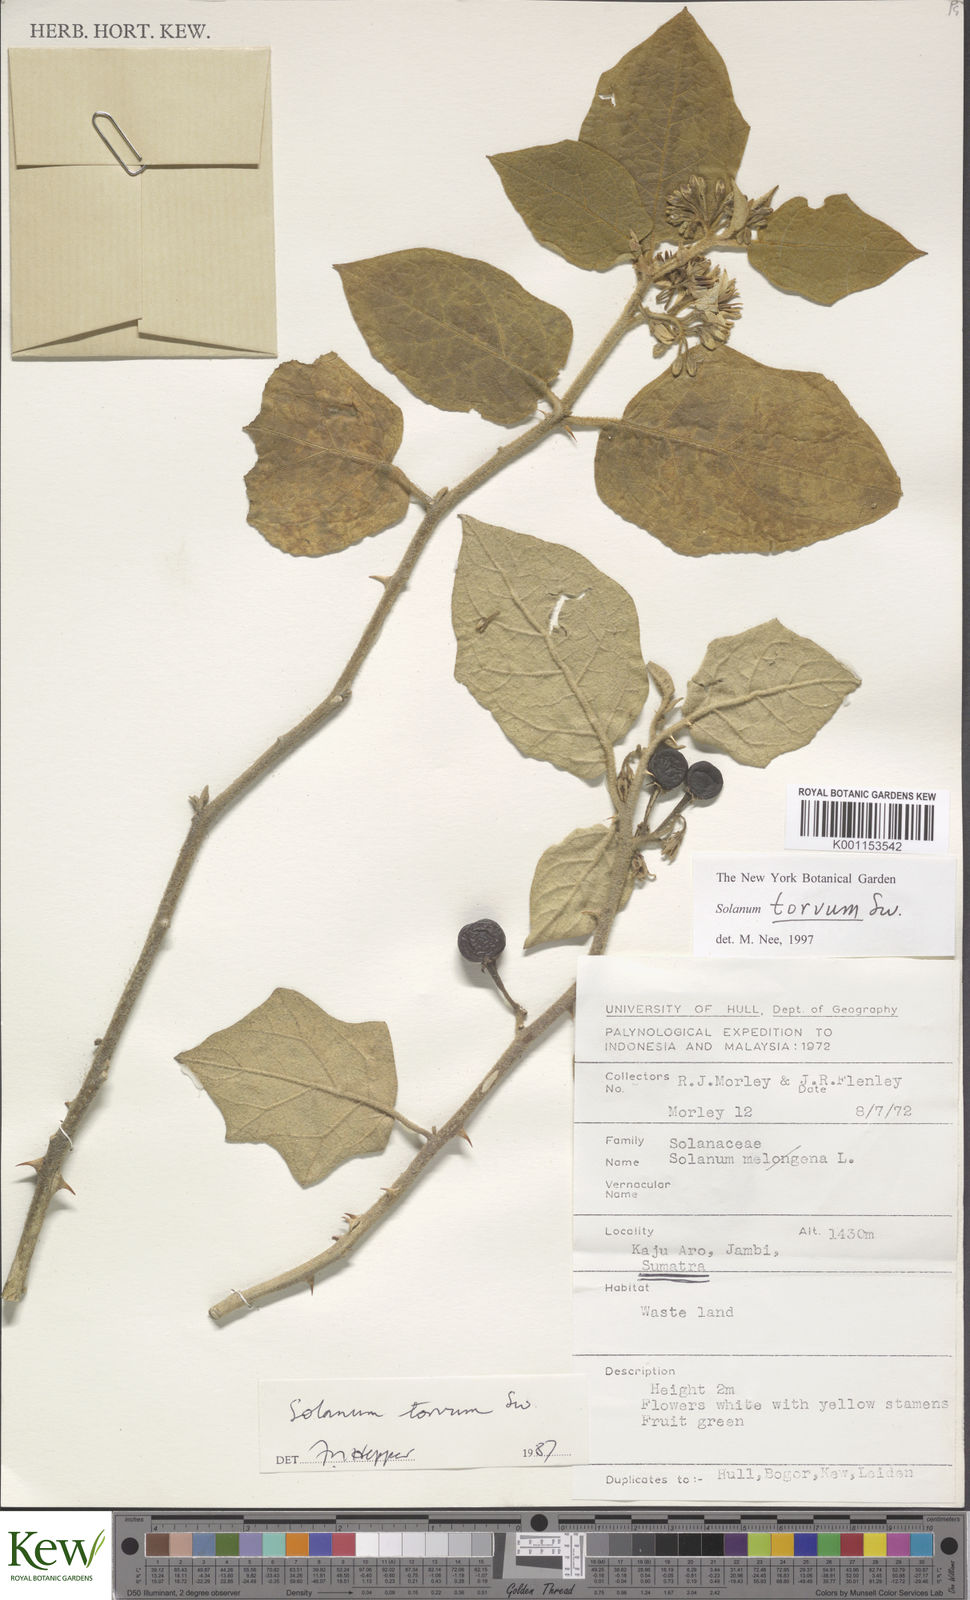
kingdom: Plantae
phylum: Tracheophyta
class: Magnoliopsida
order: Solanales
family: Solanaceae
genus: Solanum
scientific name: Solanum torvum
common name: Turkey berry
